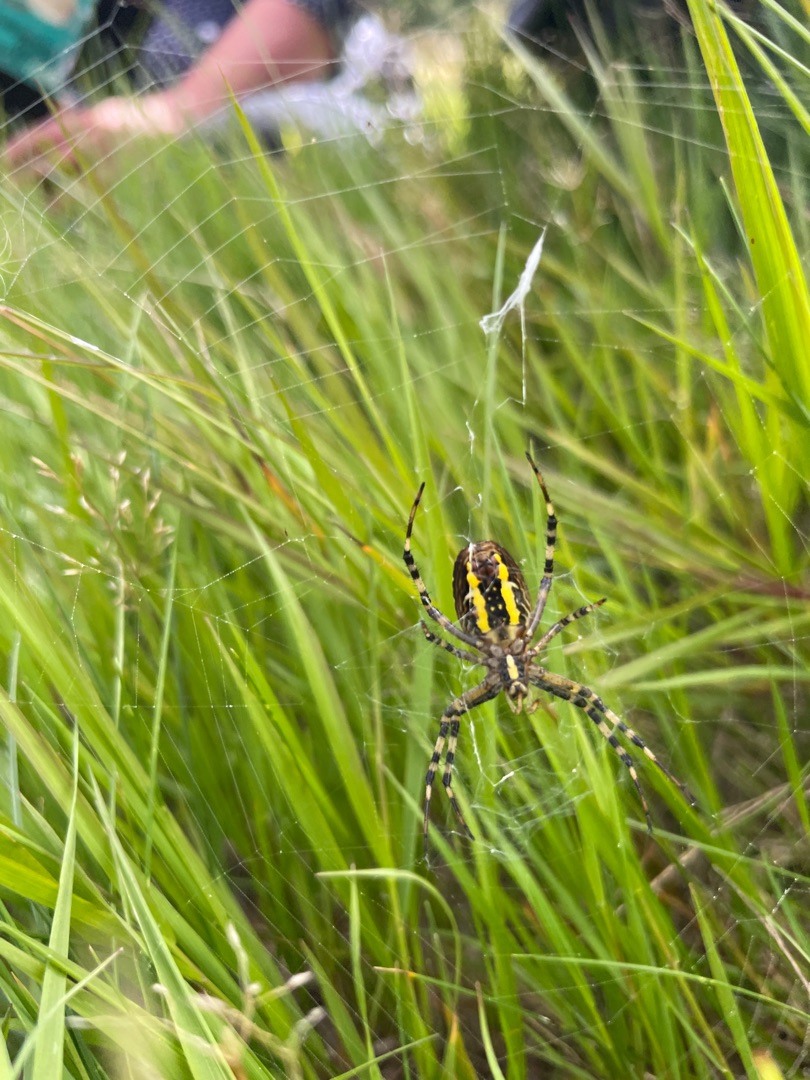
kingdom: Animalia
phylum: Arthropoda
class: Arachnida
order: Araneae
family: Araneidae
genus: Argiope
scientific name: Argiope bruennichi
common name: Hvepseedderkop
